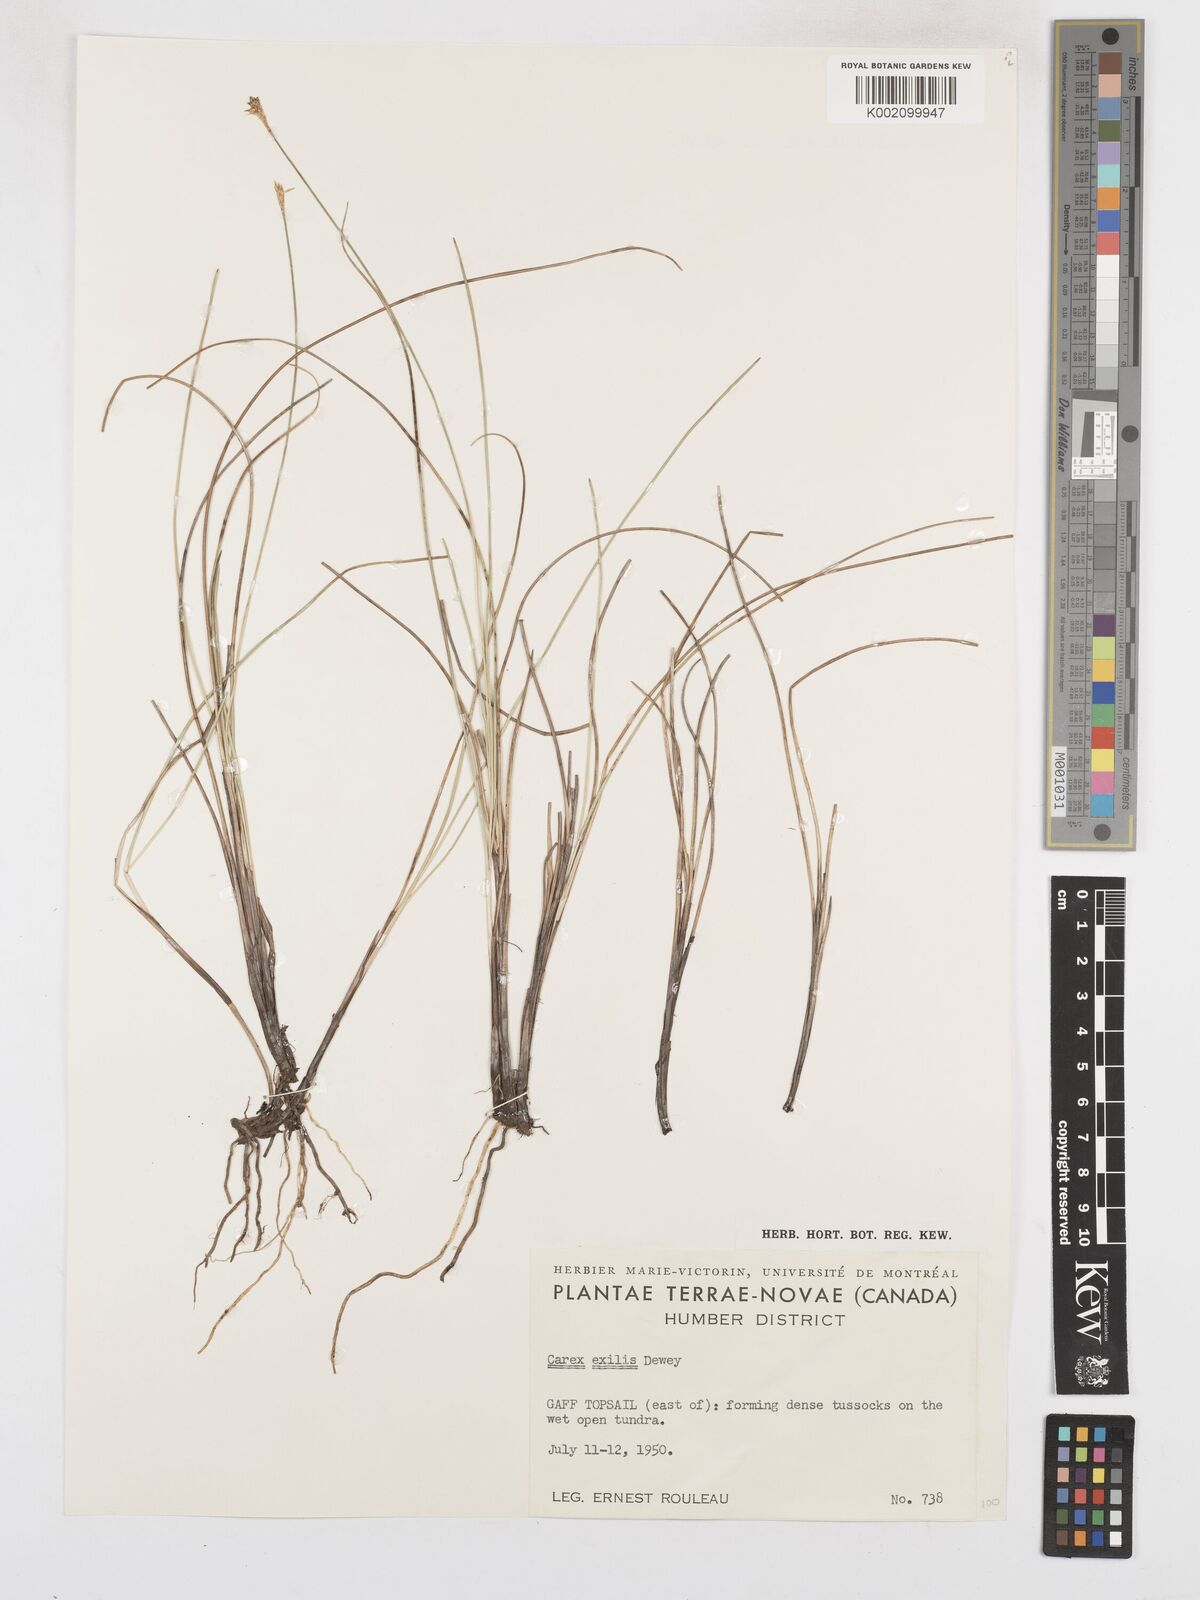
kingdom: Plantae
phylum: Tracheophyta
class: Liliopsida
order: Poales
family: Cyperaceae
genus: Carex
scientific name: Carex exilis
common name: Coastal sedge
